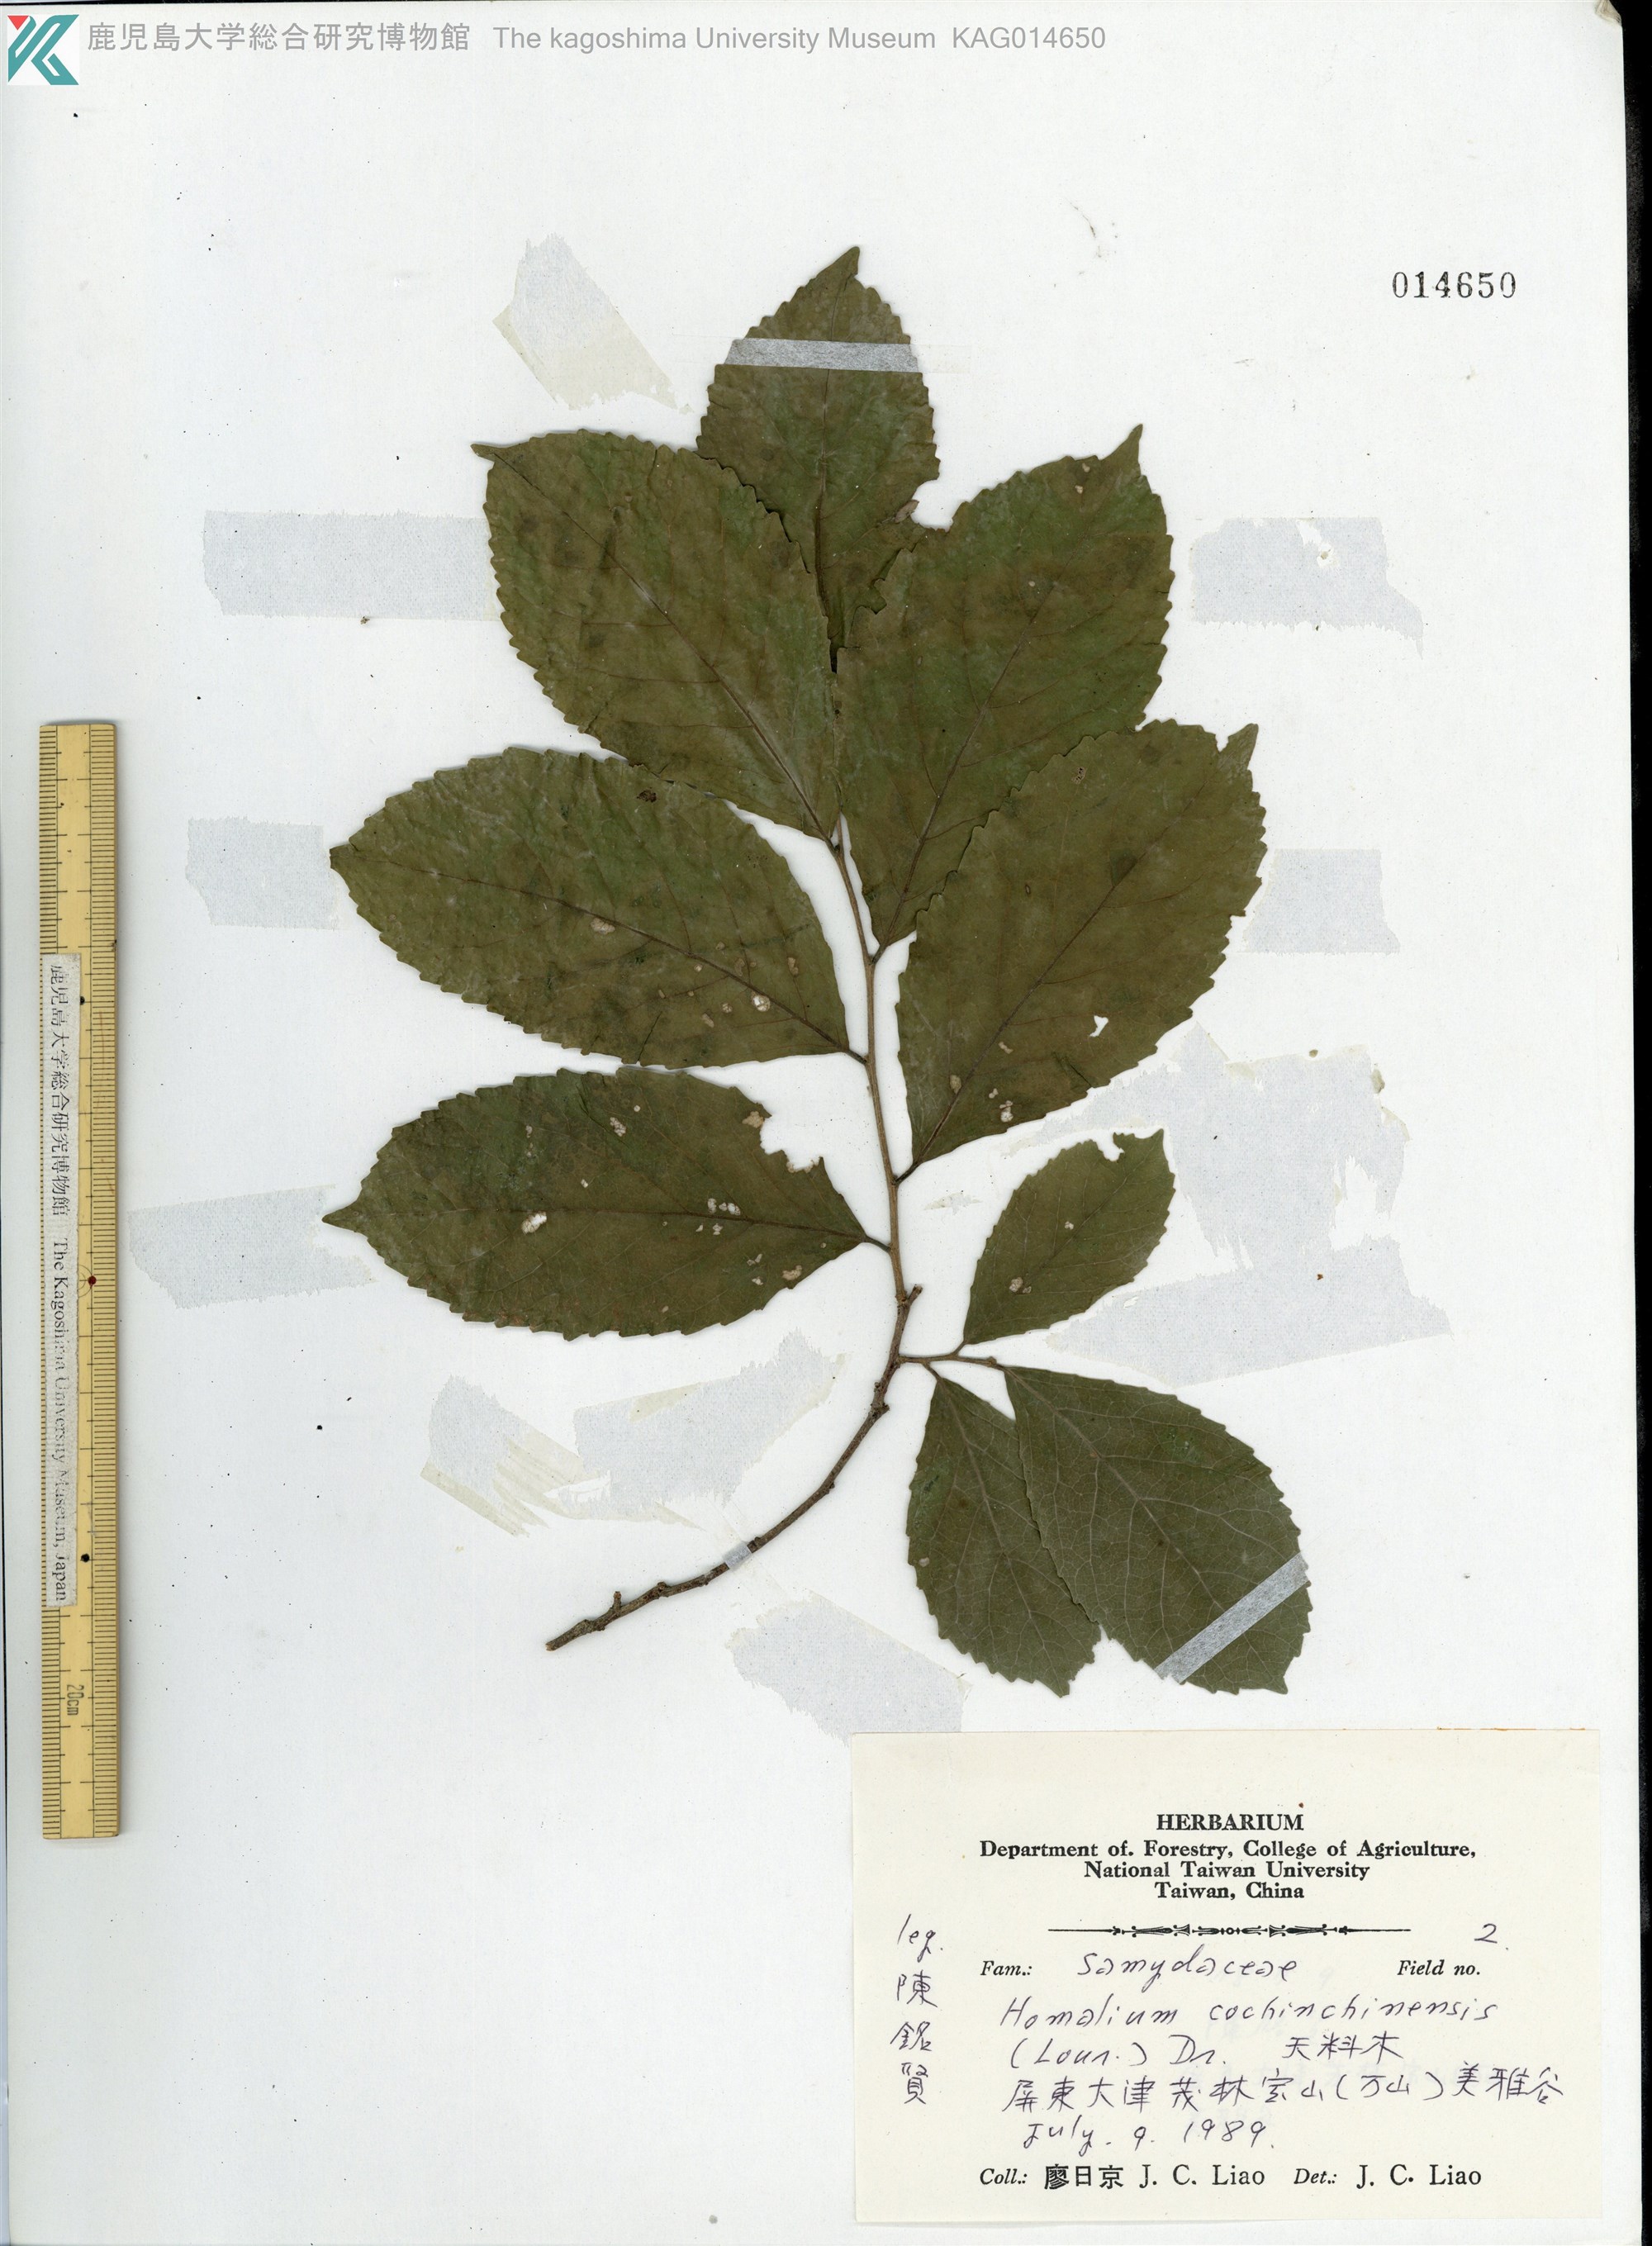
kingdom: Plantae
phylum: Tracheophyta
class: Magnoliopsida
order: Malpighiales
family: Salicaceae
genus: Homalium
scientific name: Homalium cochinchinensis
